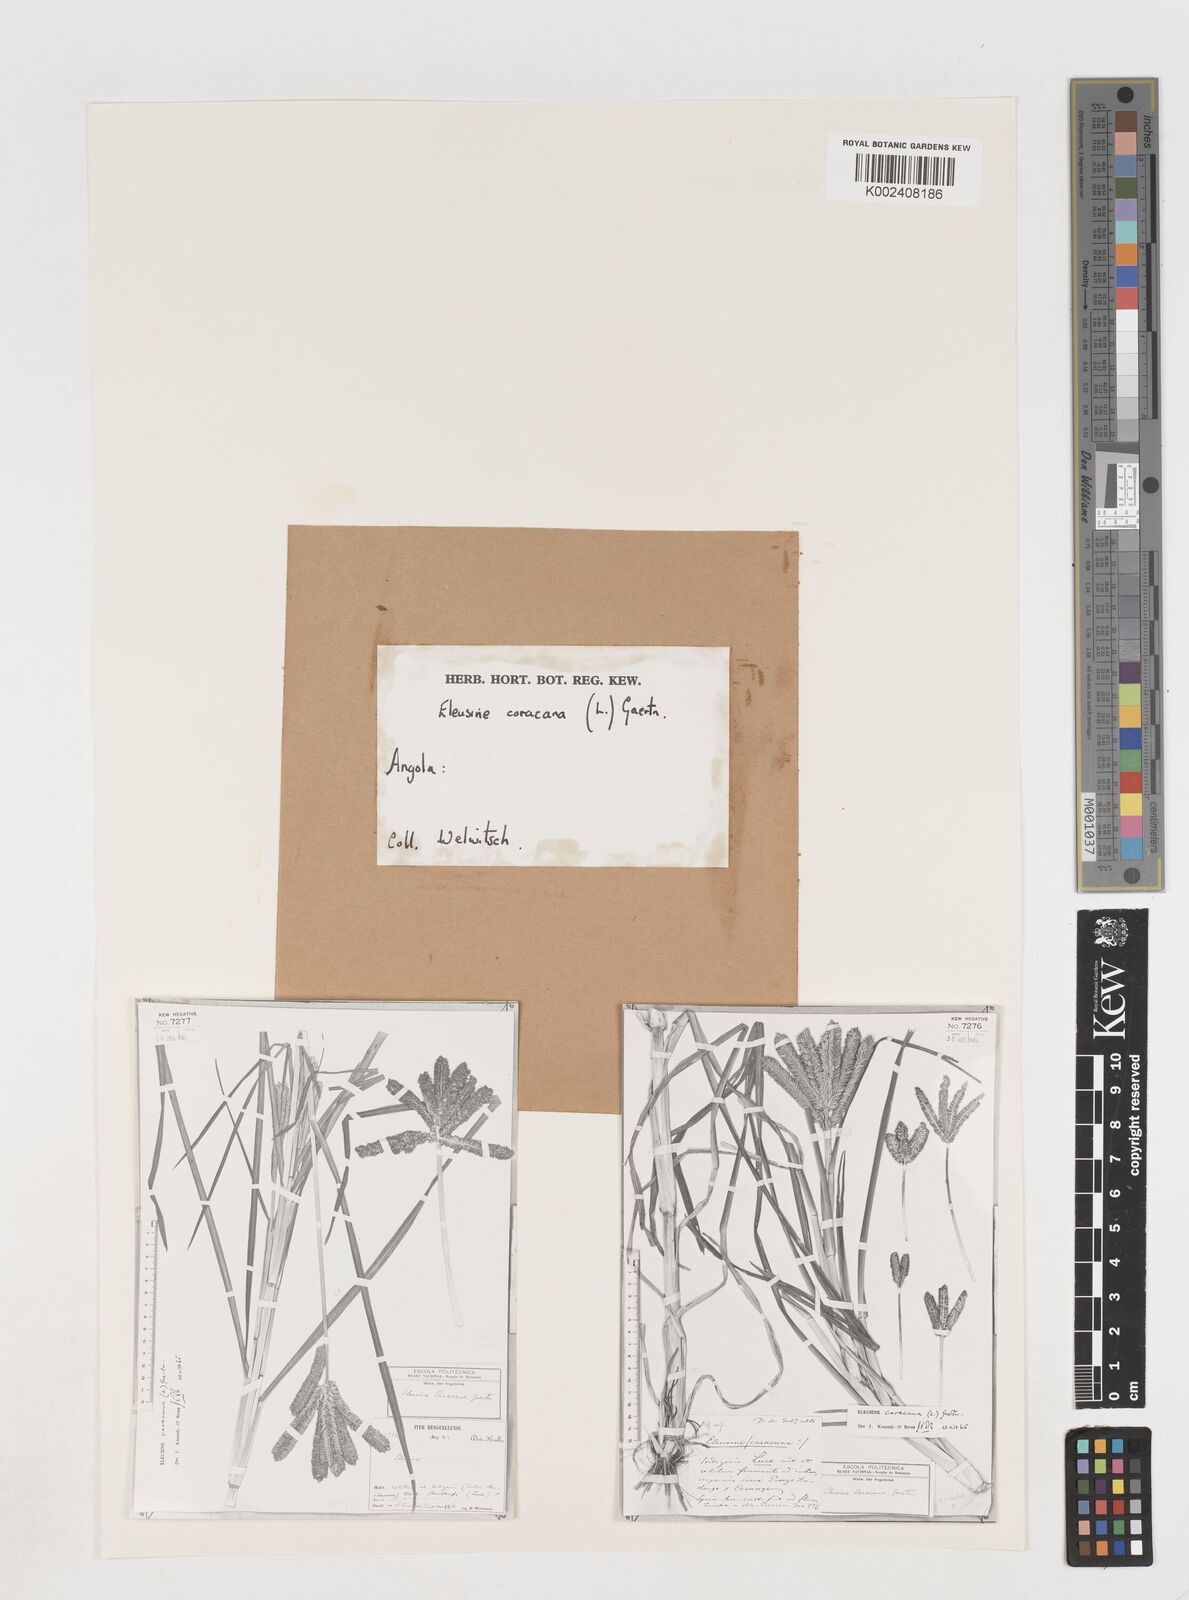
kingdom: Plantae
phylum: Tracheophyta
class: Liliopsida
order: Poales
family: Poaceae
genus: Eleusine
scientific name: Eleusine coracana
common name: Finger millet
